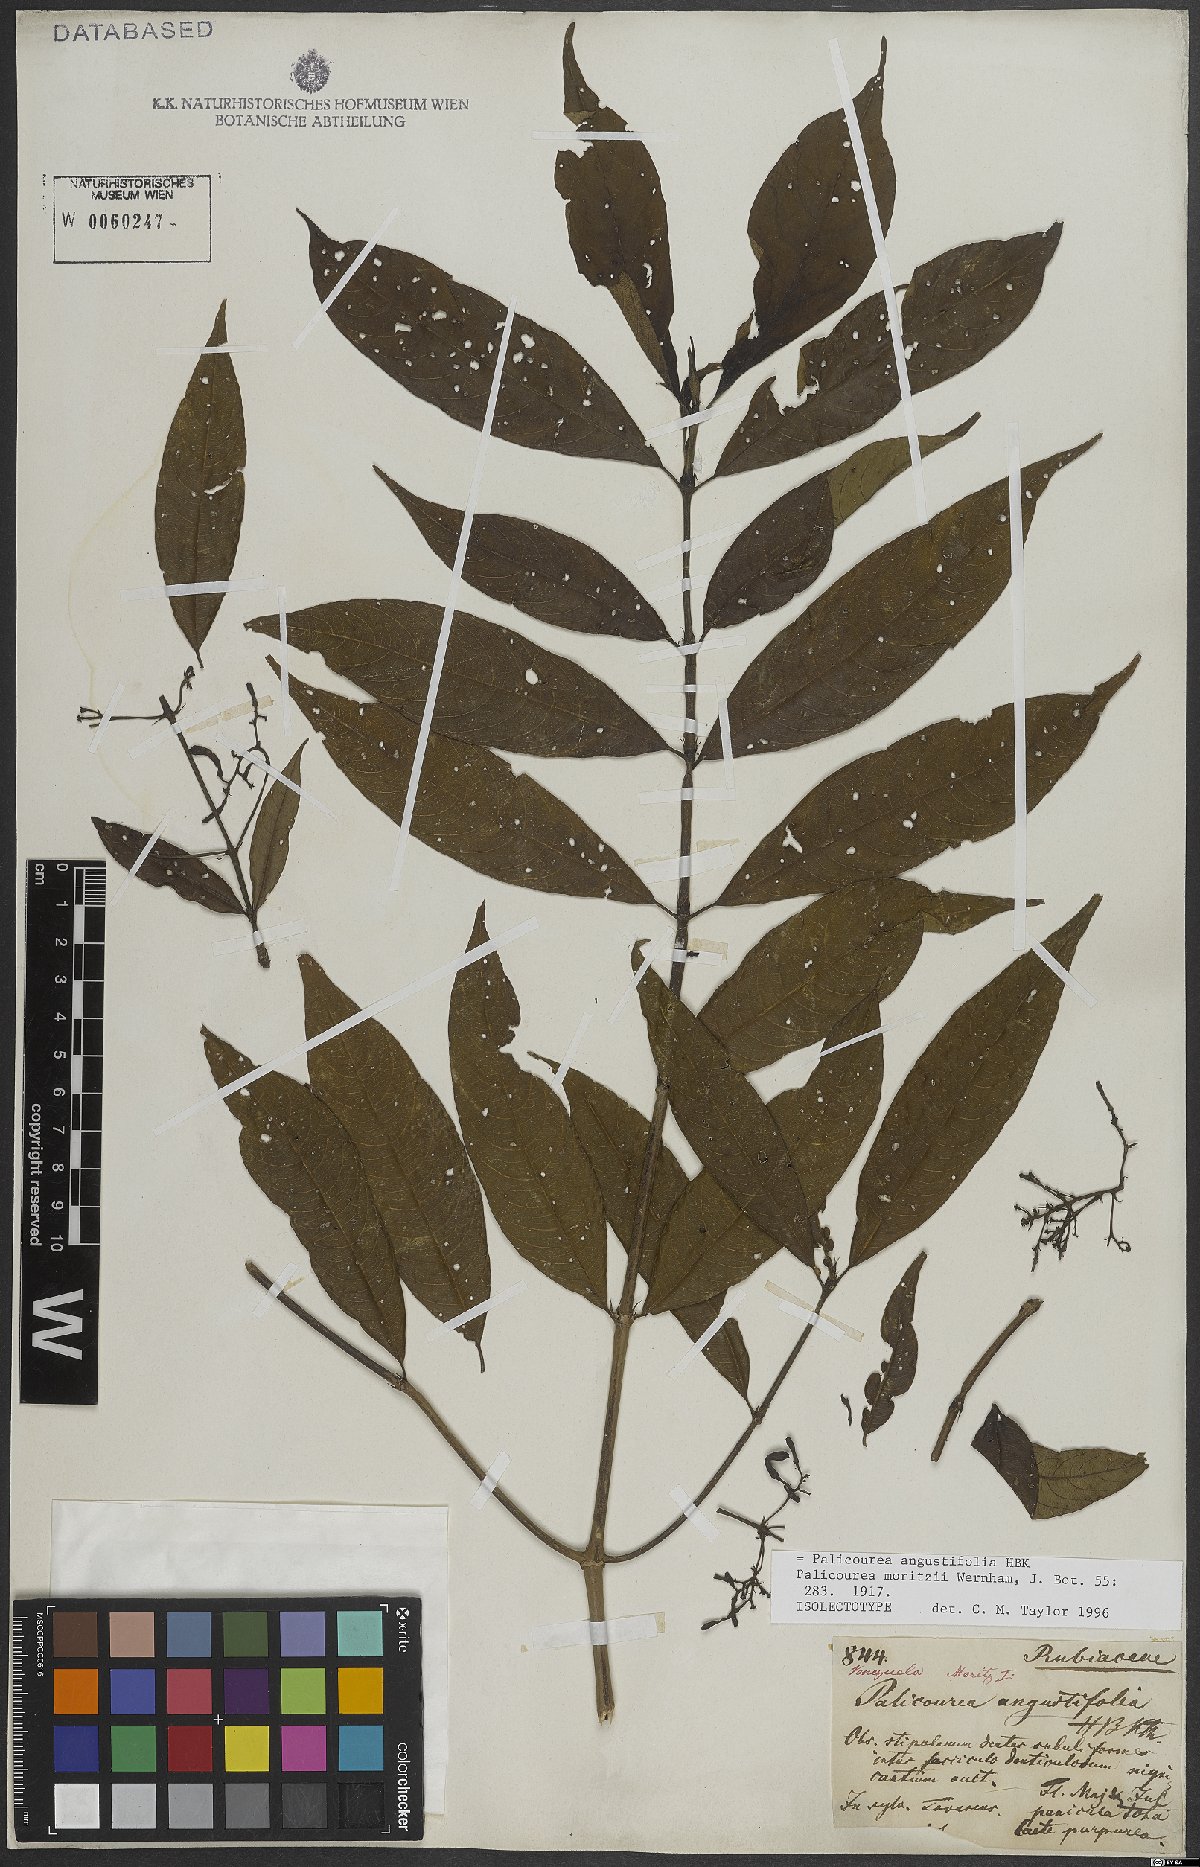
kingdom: Plantae
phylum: Tracheophyta
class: Magnoliopsida
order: Gentianales
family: Rubiaceae
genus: Palicourea
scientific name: Palicourea angustifolia
